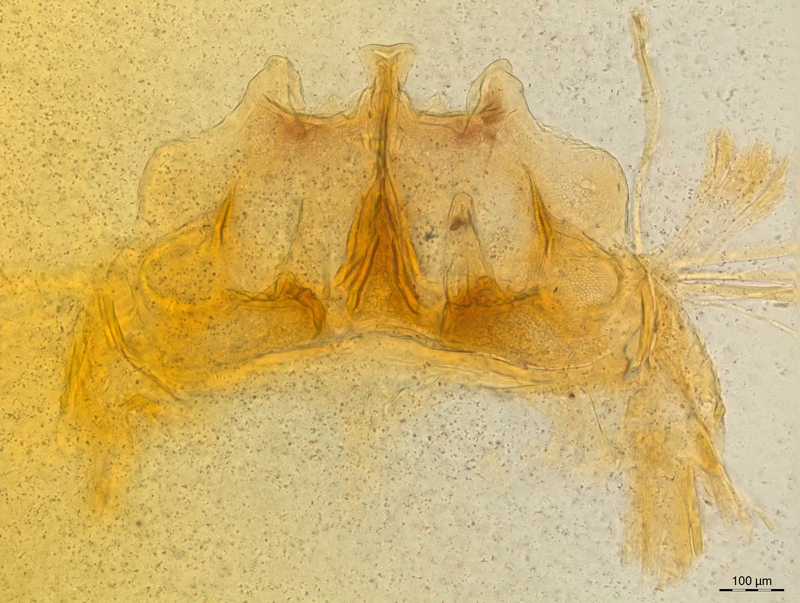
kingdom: Animalia
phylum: Arthropoda
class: Diplopoda
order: Chordeumatida
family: Craspedosomatidae
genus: Craspedosoma
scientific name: Craspedosoma rawlinsii
